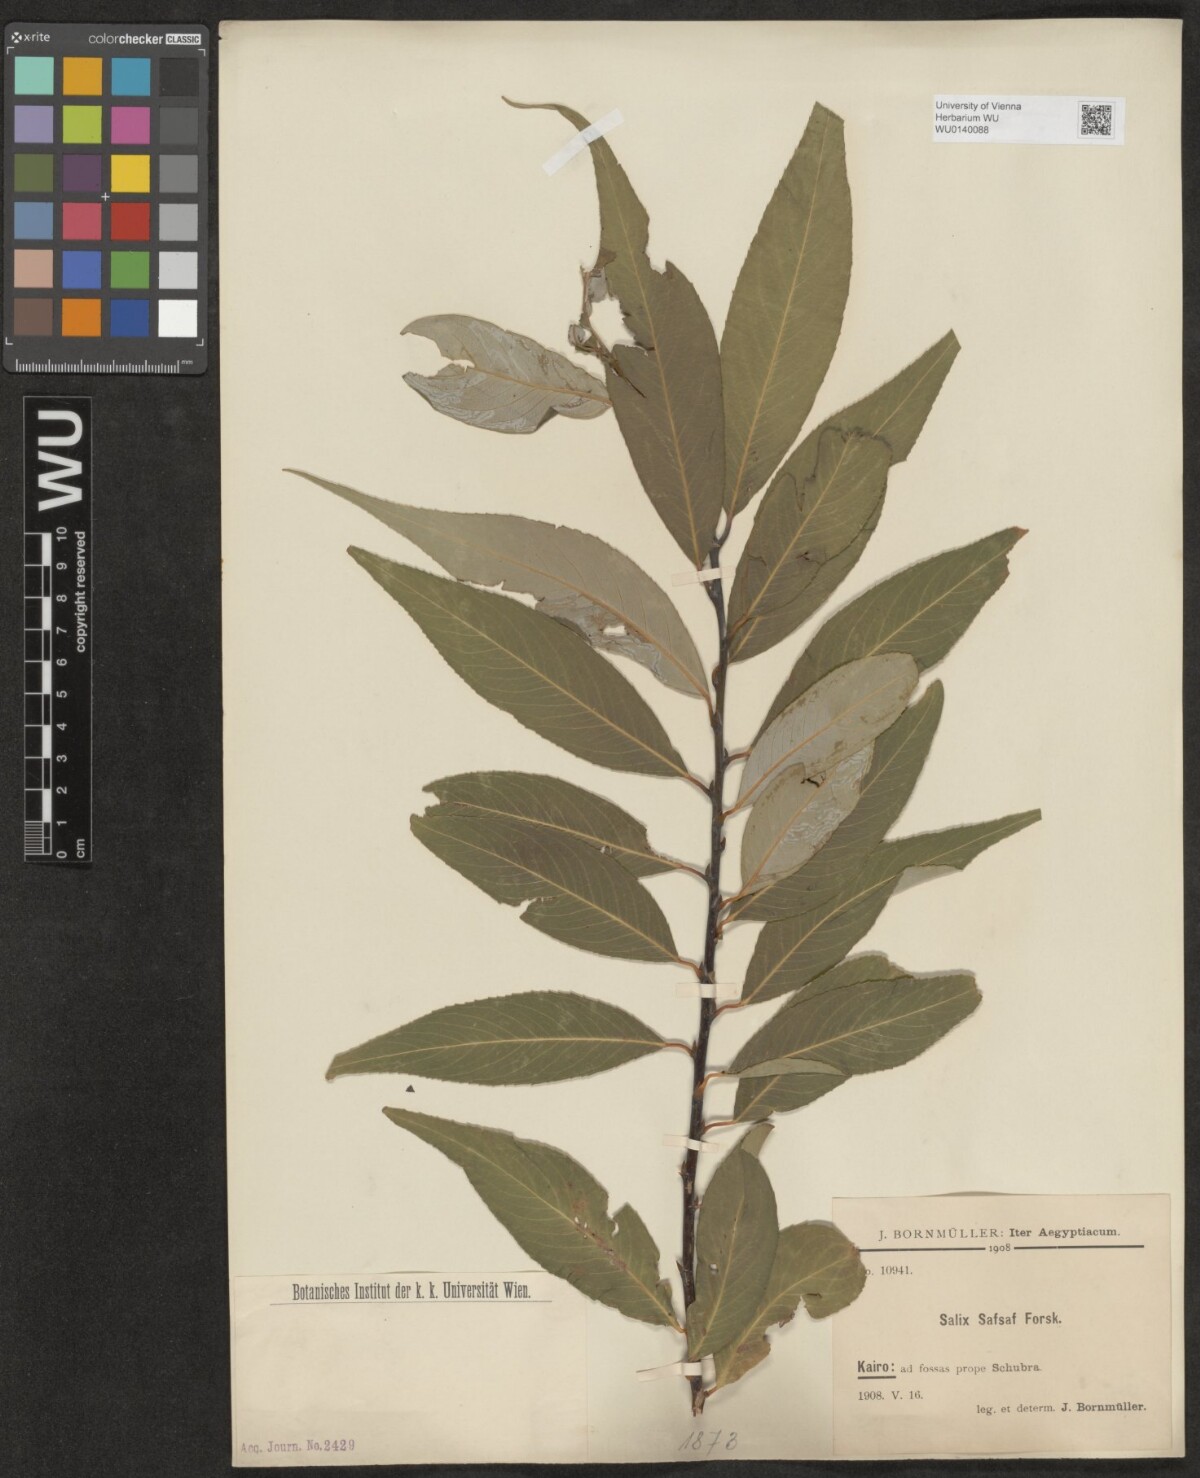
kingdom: Plantae
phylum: Tracheophyta
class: Magnoliopsida
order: Malpighiales
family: Salicaceae
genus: Salix
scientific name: Salix mucronata
